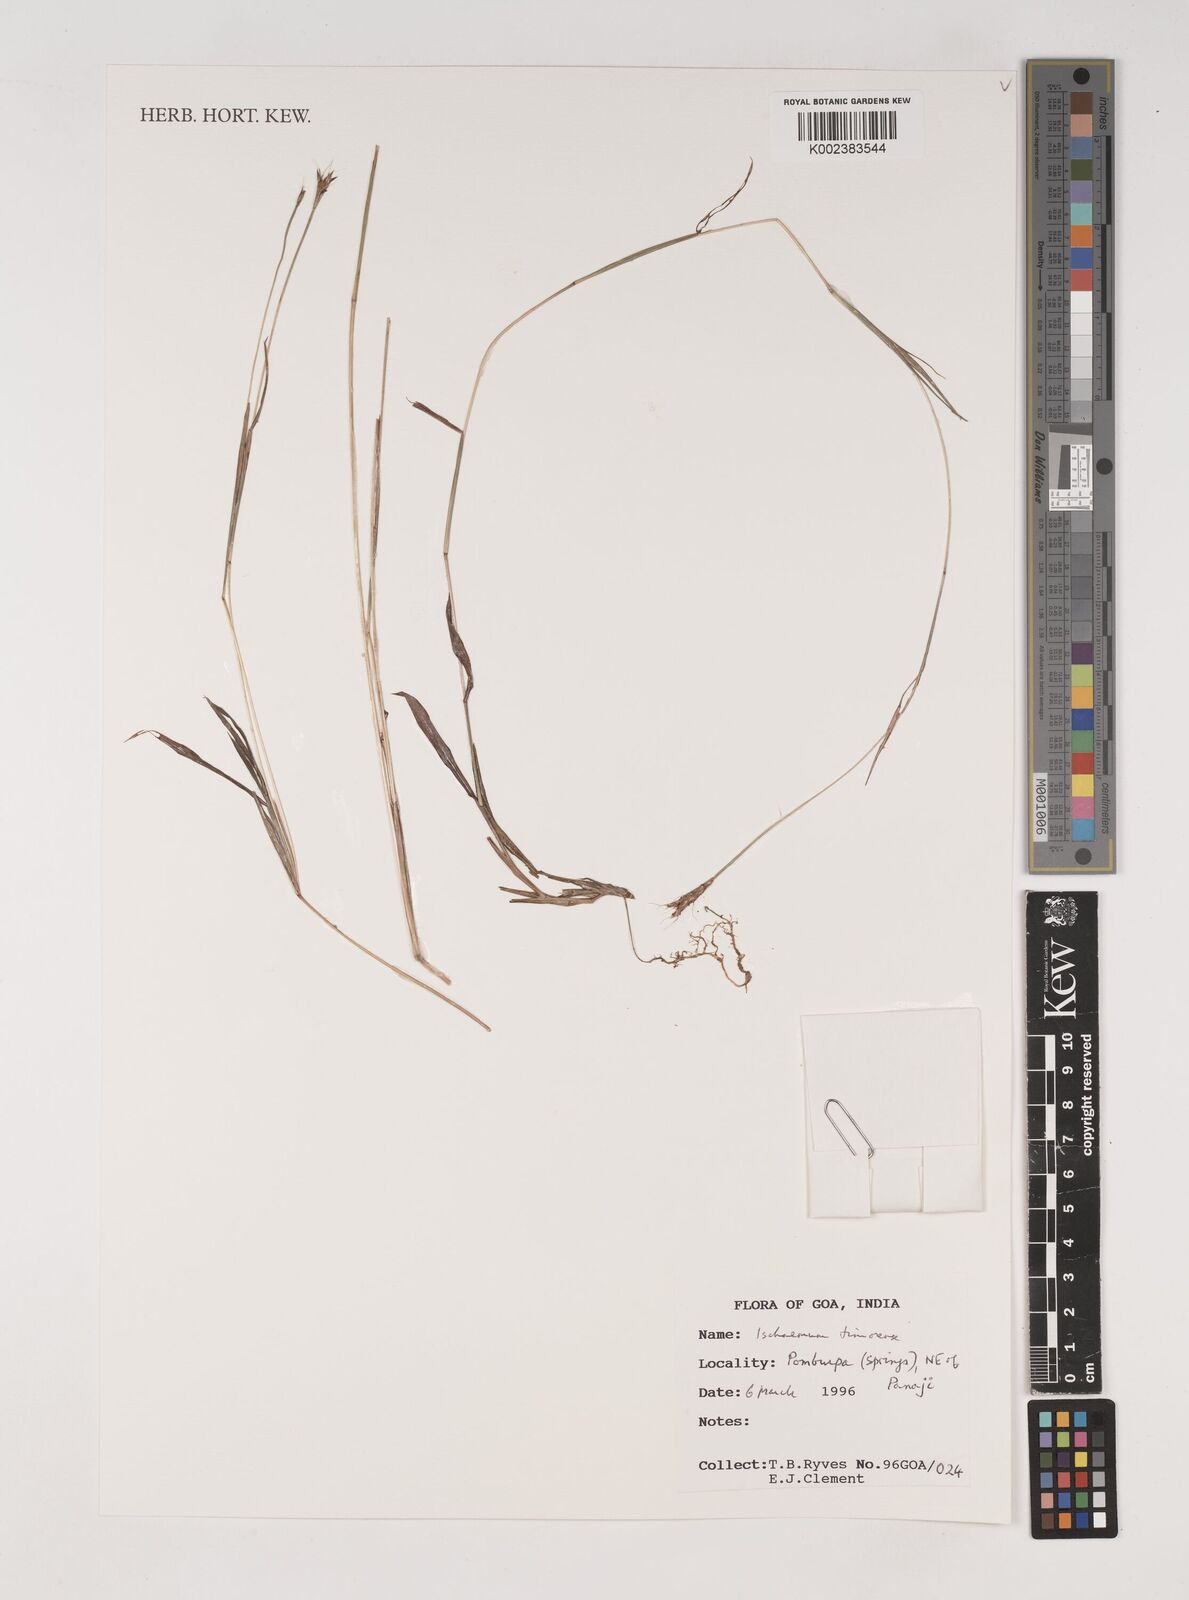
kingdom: Plantae
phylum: Tracheophyta
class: Liliopsida
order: Poales
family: Poaceae
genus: Ischaemum
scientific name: Ischaemum timorense
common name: Stalkleaf murainagrass
